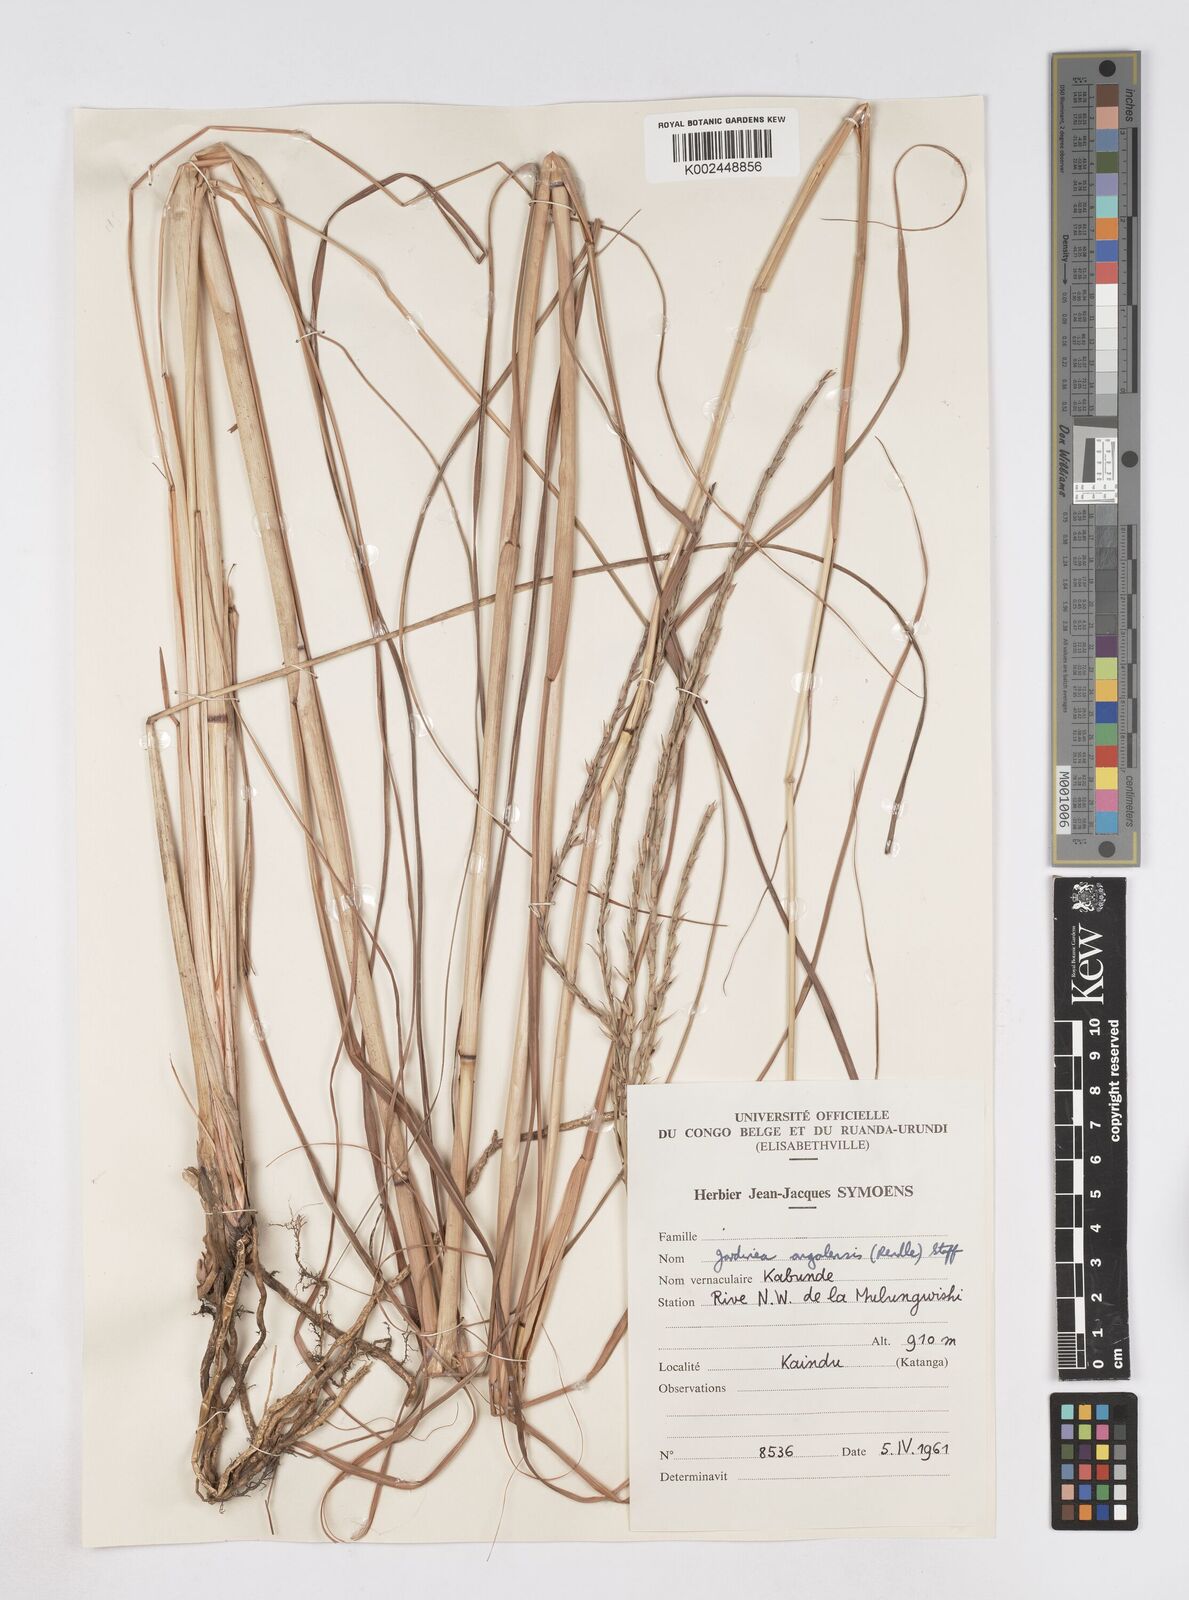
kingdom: Plantae
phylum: Tracheophyta
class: Liliopsida
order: Poales
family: Poaceae
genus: Phacelurus
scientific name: Phacelurus gabonensis
